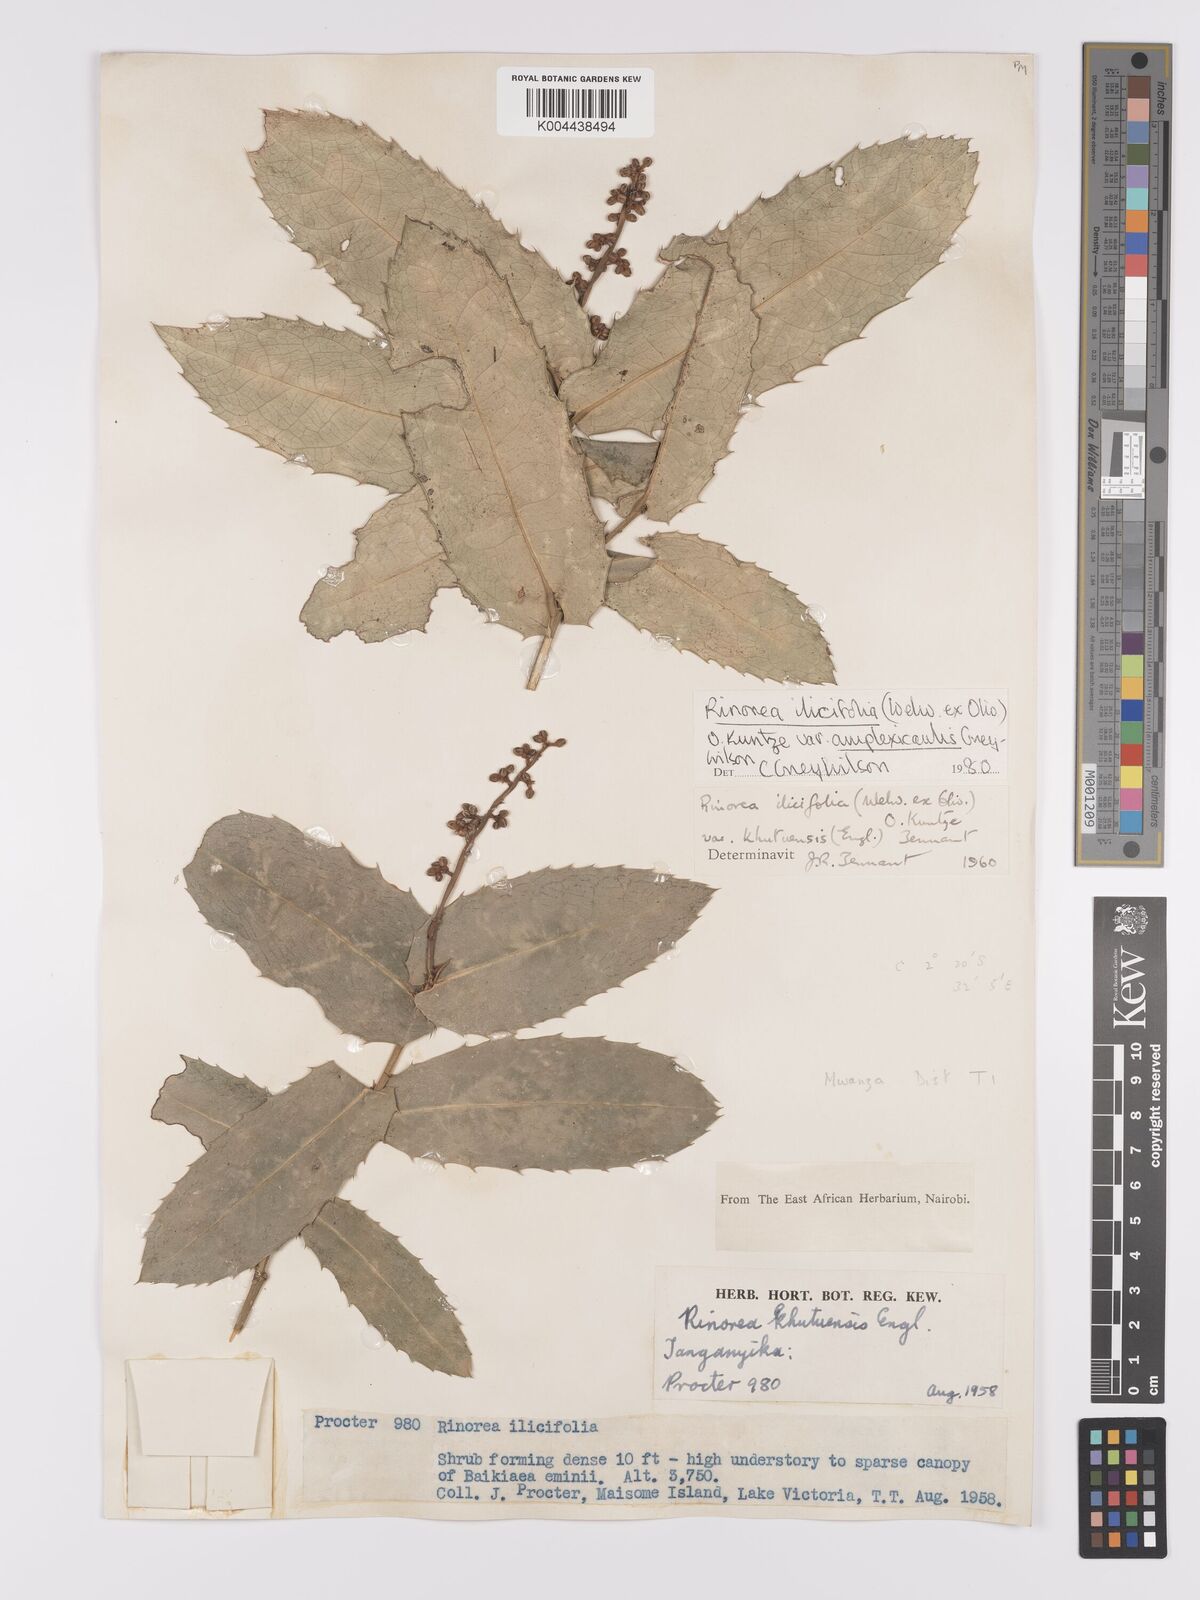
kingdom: Plantae
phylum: Tracheophyta
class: Magnoliopsida
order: Malpighiales
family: Violaceae
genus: Rinorea
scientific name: Rinorea ilicifolia
